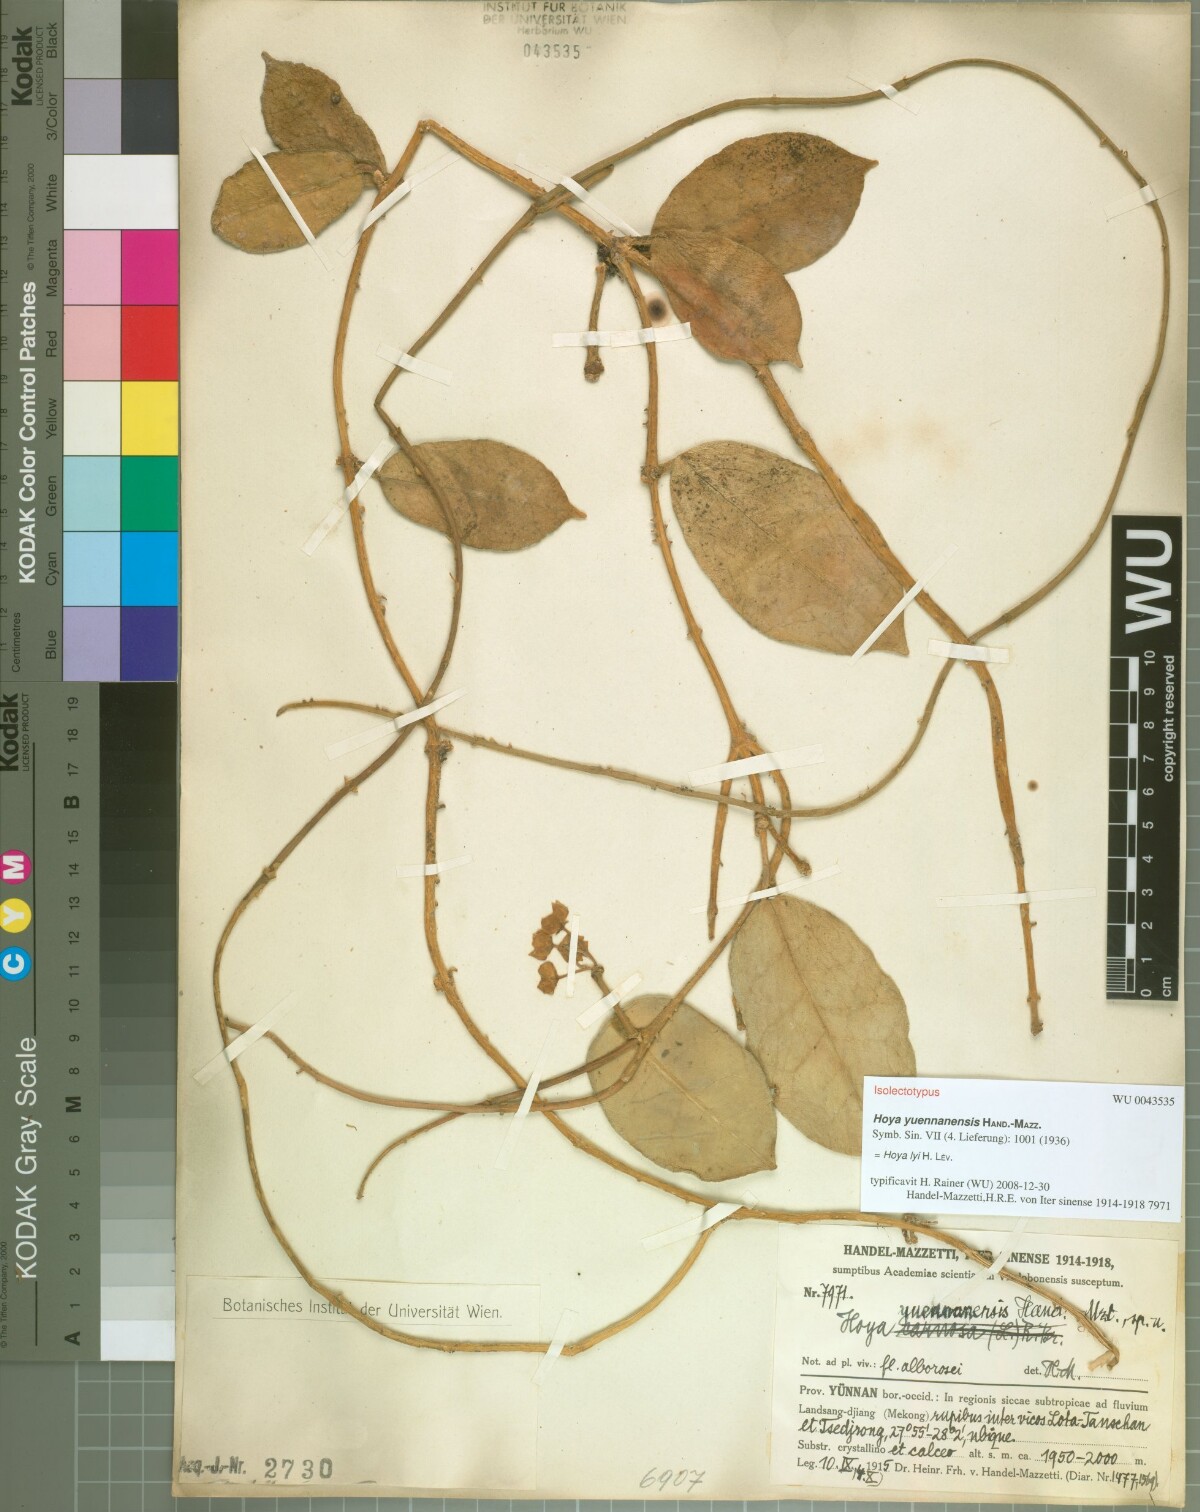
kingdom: Plantae
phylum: Tracheophyta
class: Magnoliopsida
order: Gentianales
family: Apocynaceae
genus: Hoya
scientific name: Hoya yuennanensis
